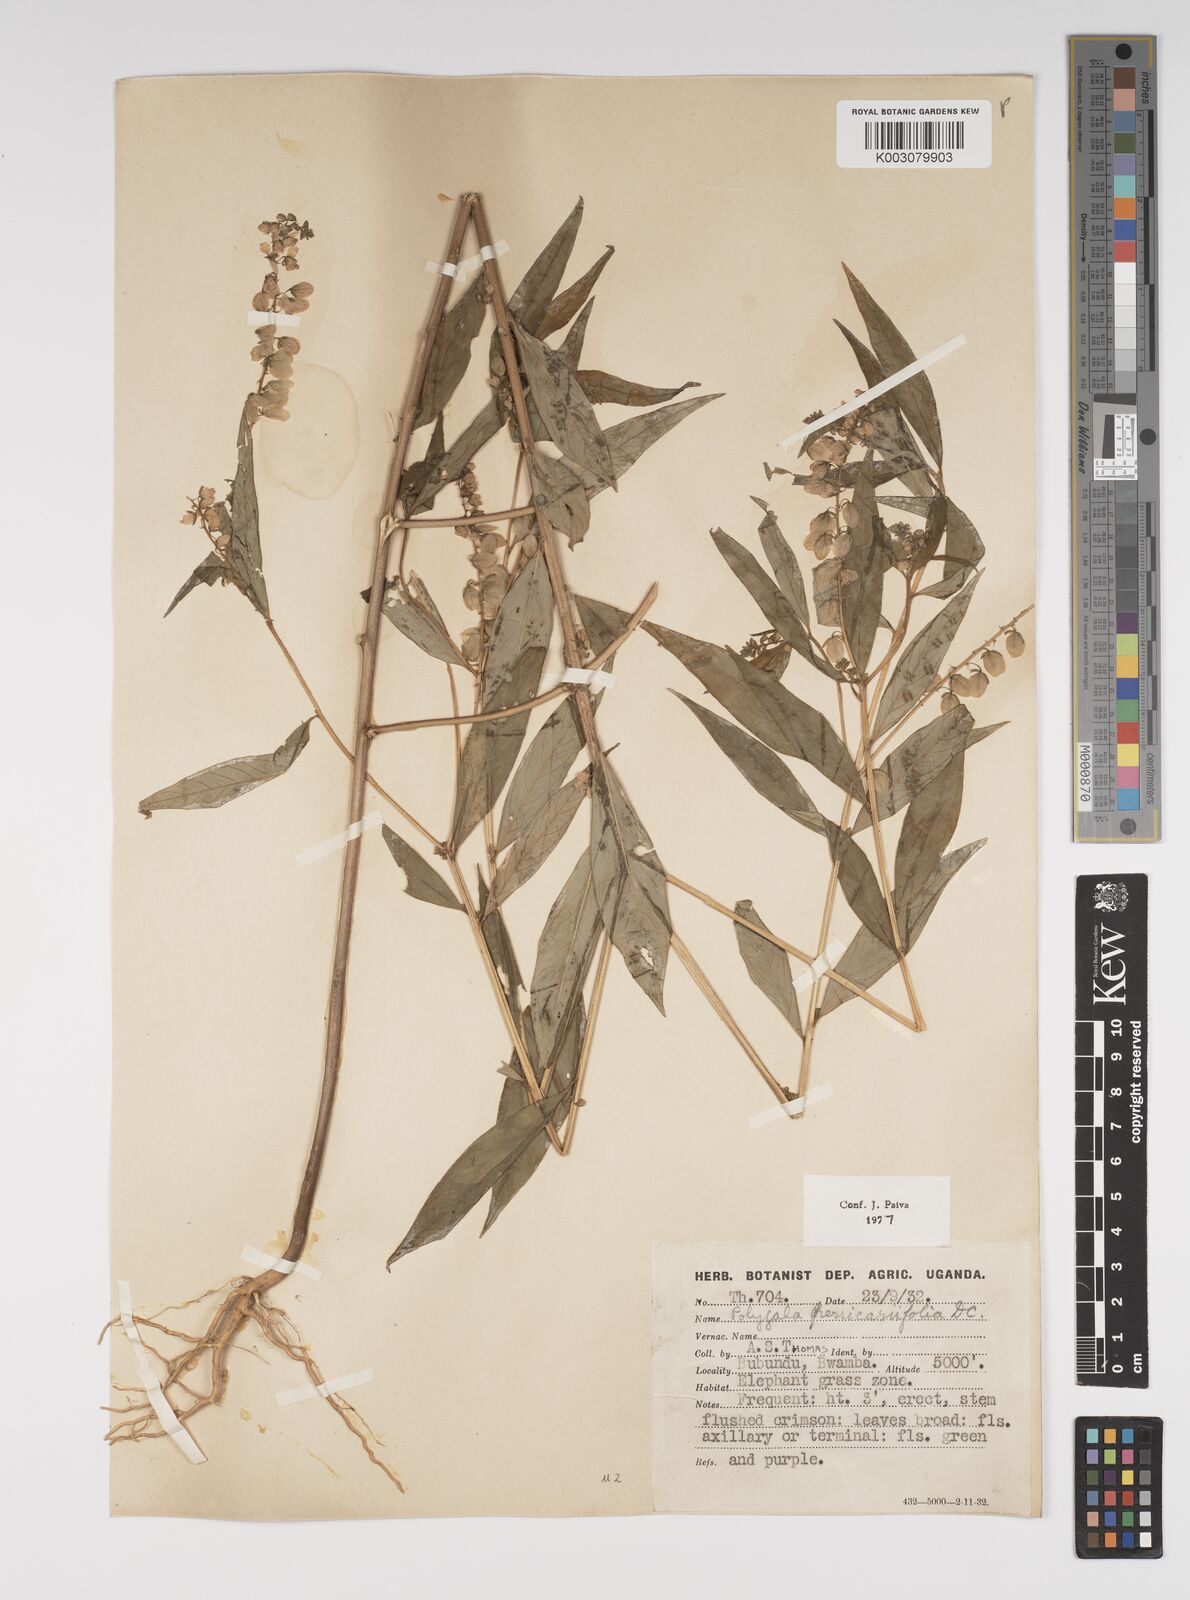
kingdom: Plantae
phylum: Tracheophyta
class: Magnoliopsida
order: Fabales
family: Polygalaceae
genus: Polygala
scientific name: Polygala persicariifolia
